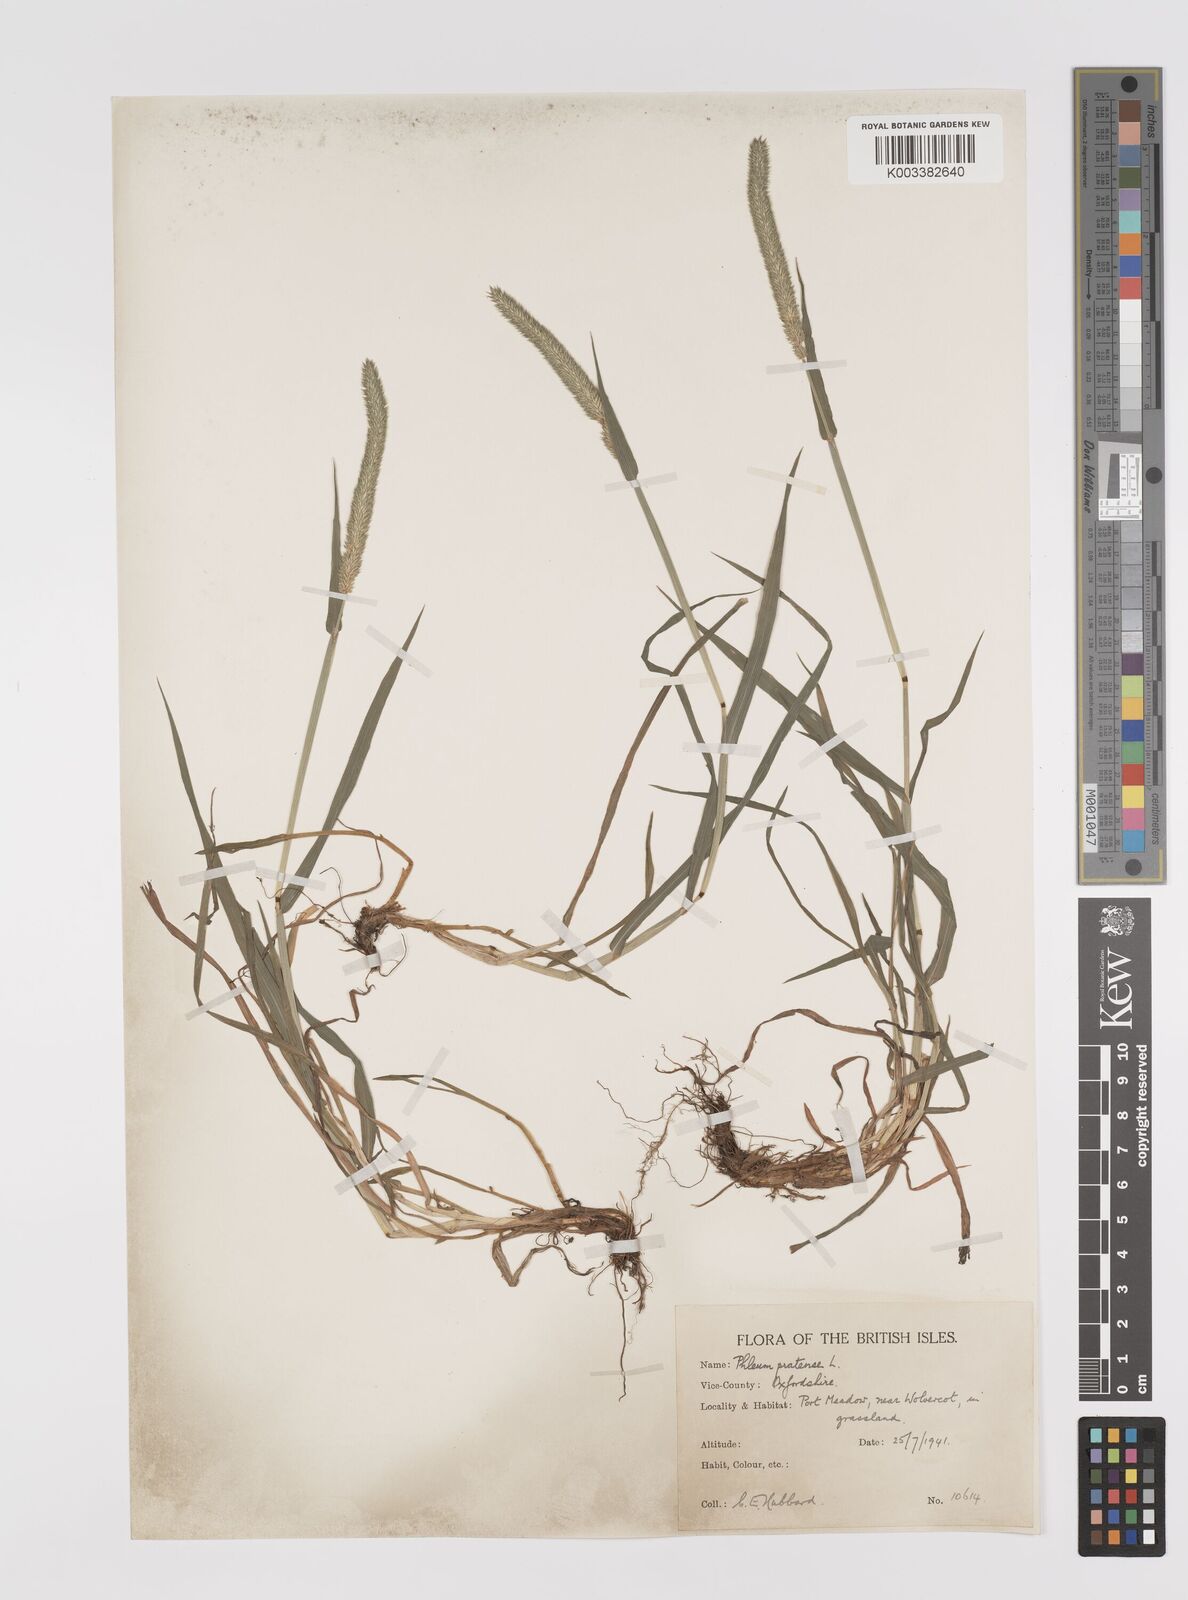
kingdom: Plantae
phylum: Tracheophyta
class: Liliopsida
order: Poales
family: Poaceae
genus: Phleum
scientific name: Phleum pratense
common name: Timothy grass
